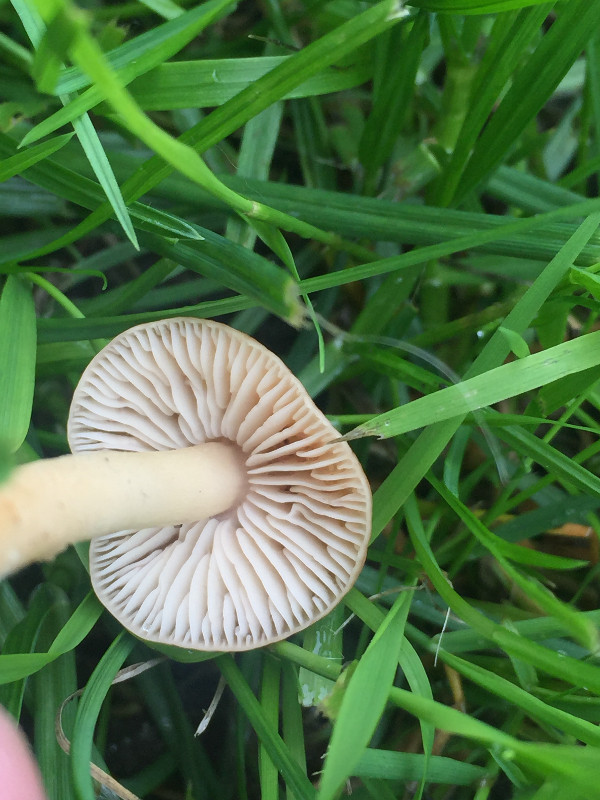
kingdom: Fungi
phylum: Basidiomycota
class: Agaricomycetes
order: Agaricales
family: Marasmiaceae
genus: Marasmius
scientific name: Marasmius oreades
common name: elledans-bruskhat
